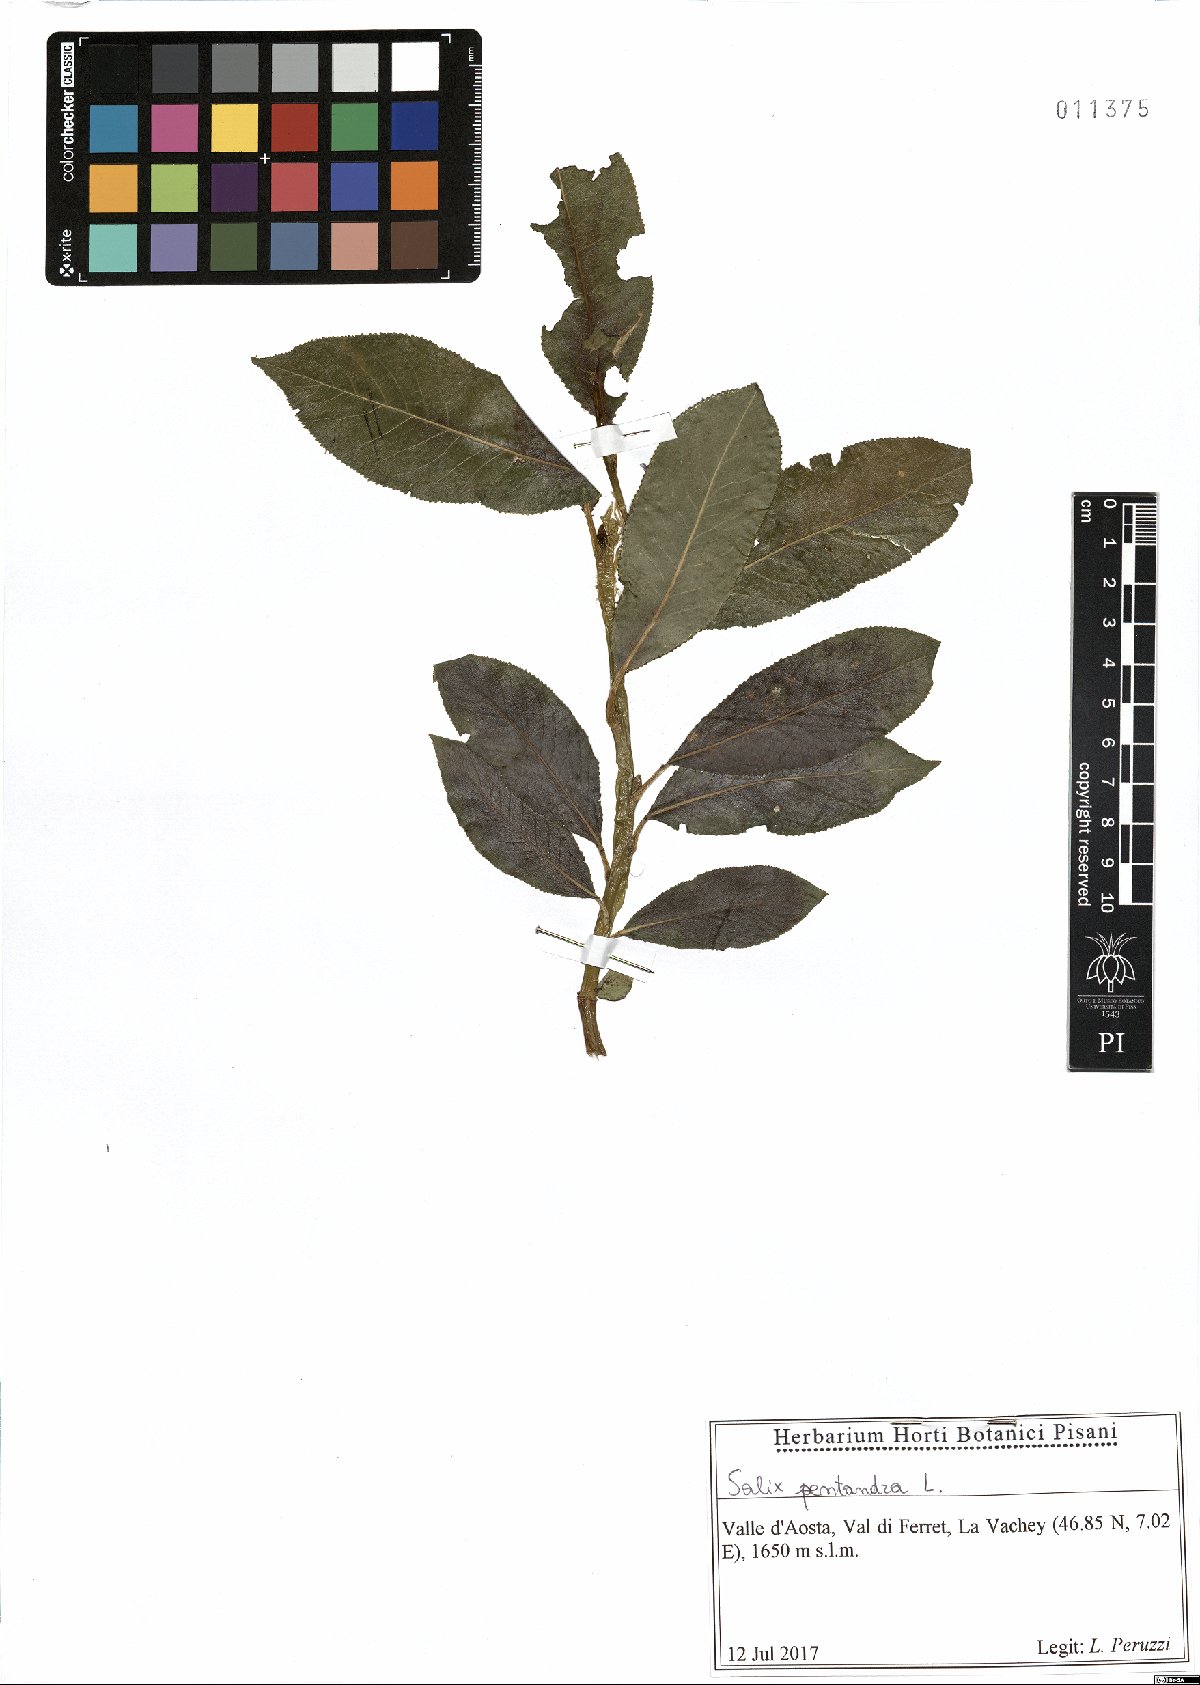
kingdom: Plantae
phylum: Tracheophyta
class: Magnoliopsida
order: Malpighiales
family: Salicaceae
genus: Salix
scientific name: Salix pentandra
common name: Bay willow
